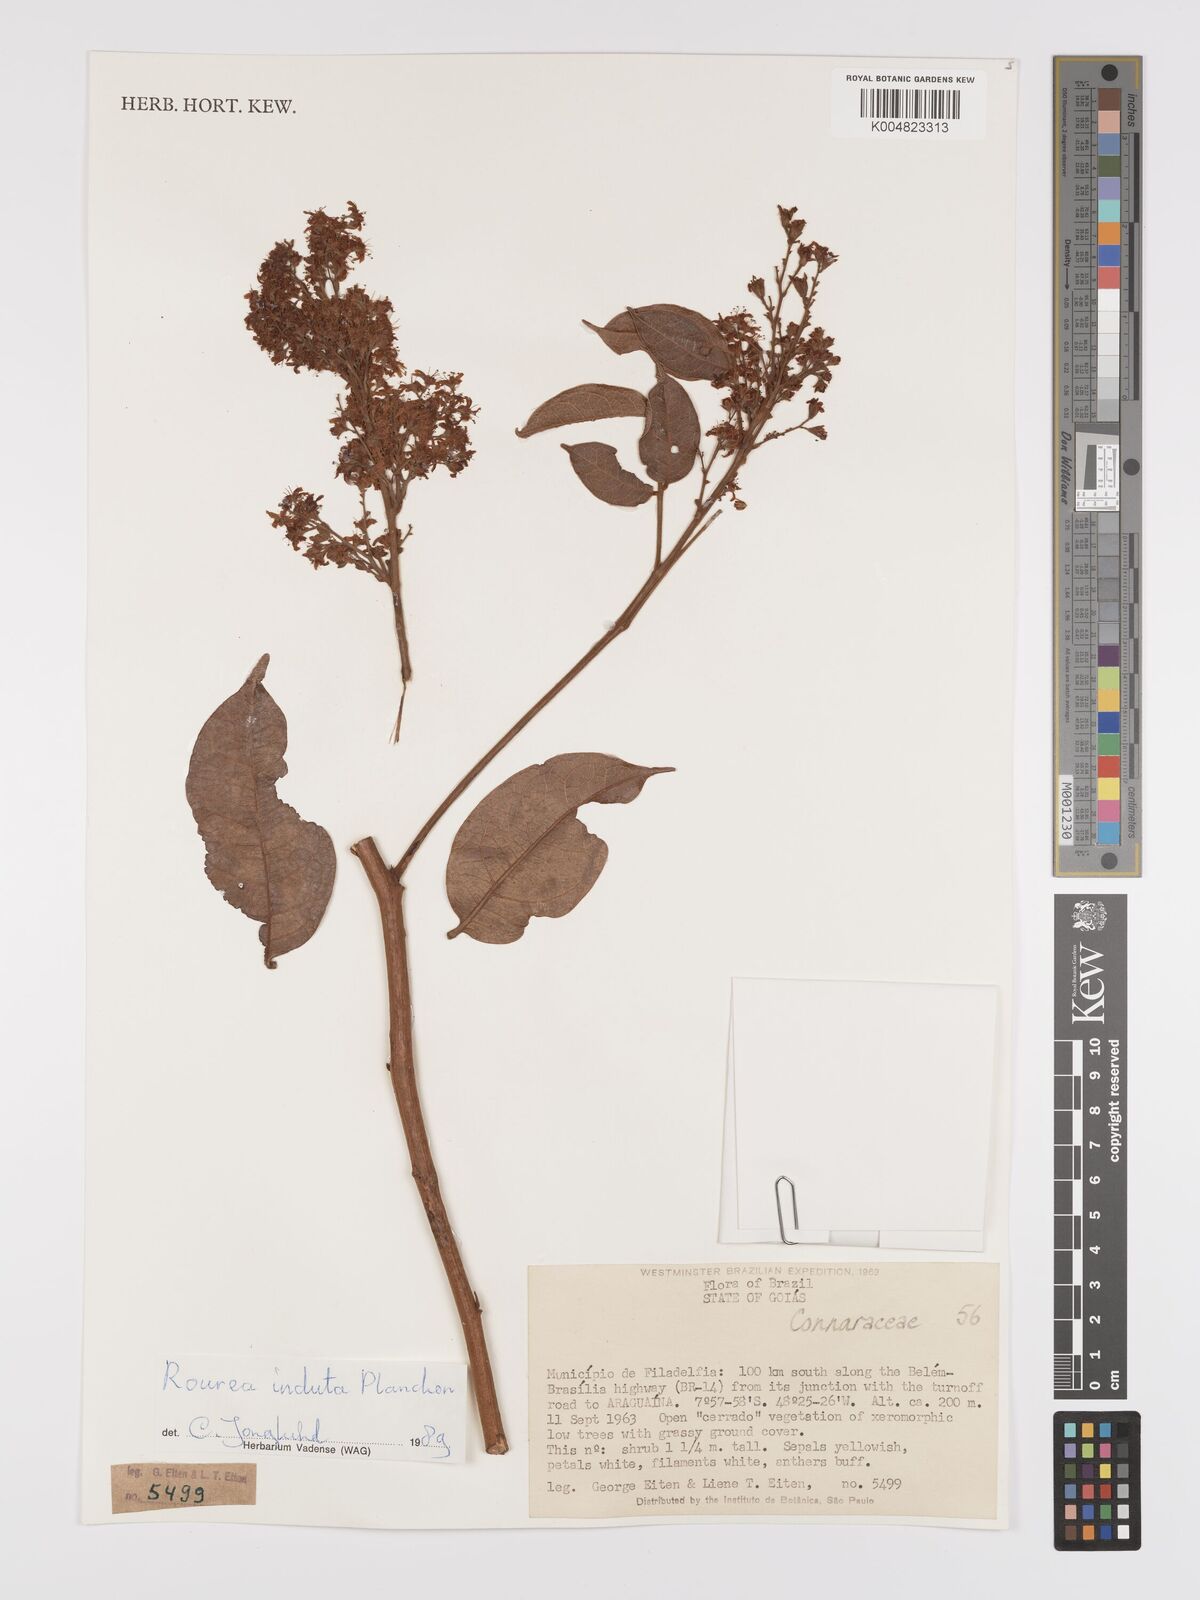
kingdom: Plantae
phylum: Tracheophyta
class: Magnoliopsida
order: Oxalidales
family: Connaraceae
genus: Rourea
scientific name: Rourea induta
